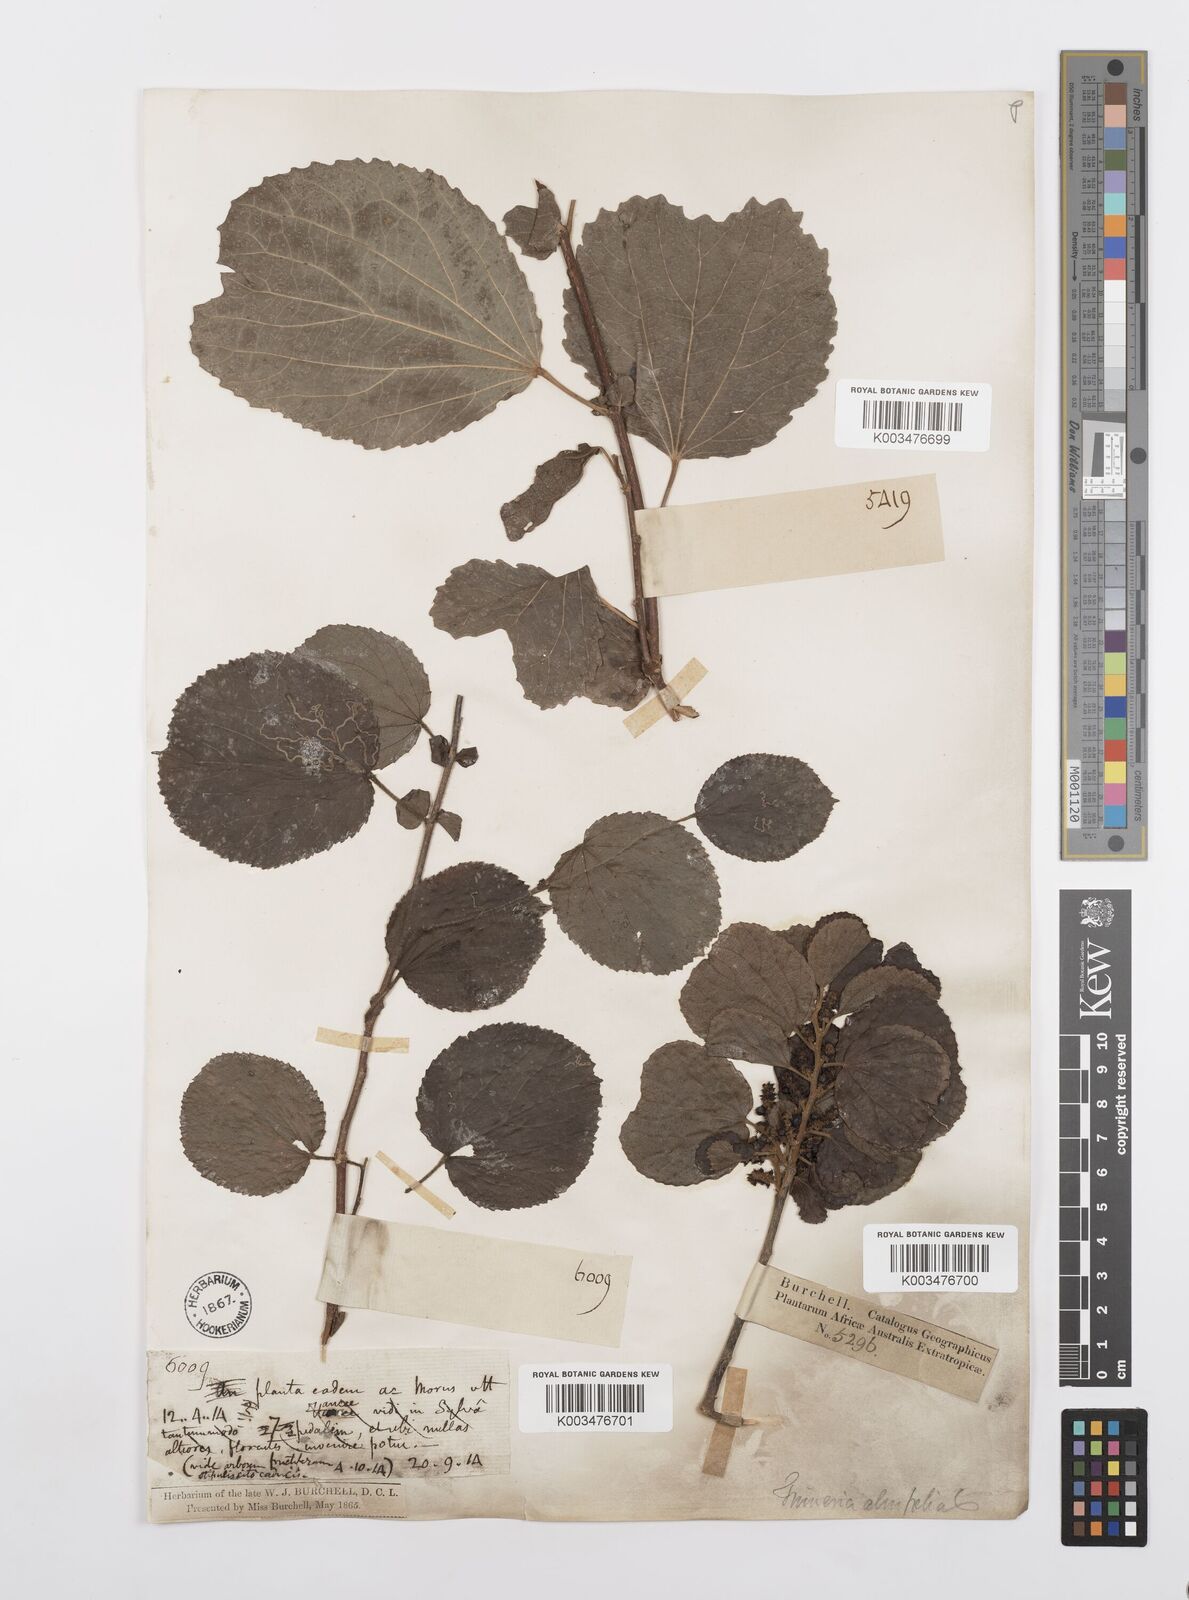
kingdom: Plantae
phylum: Tracheophyta
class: Magnoliopsida
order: Malpighiales
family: Salicaceae
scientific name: Salicaceae
